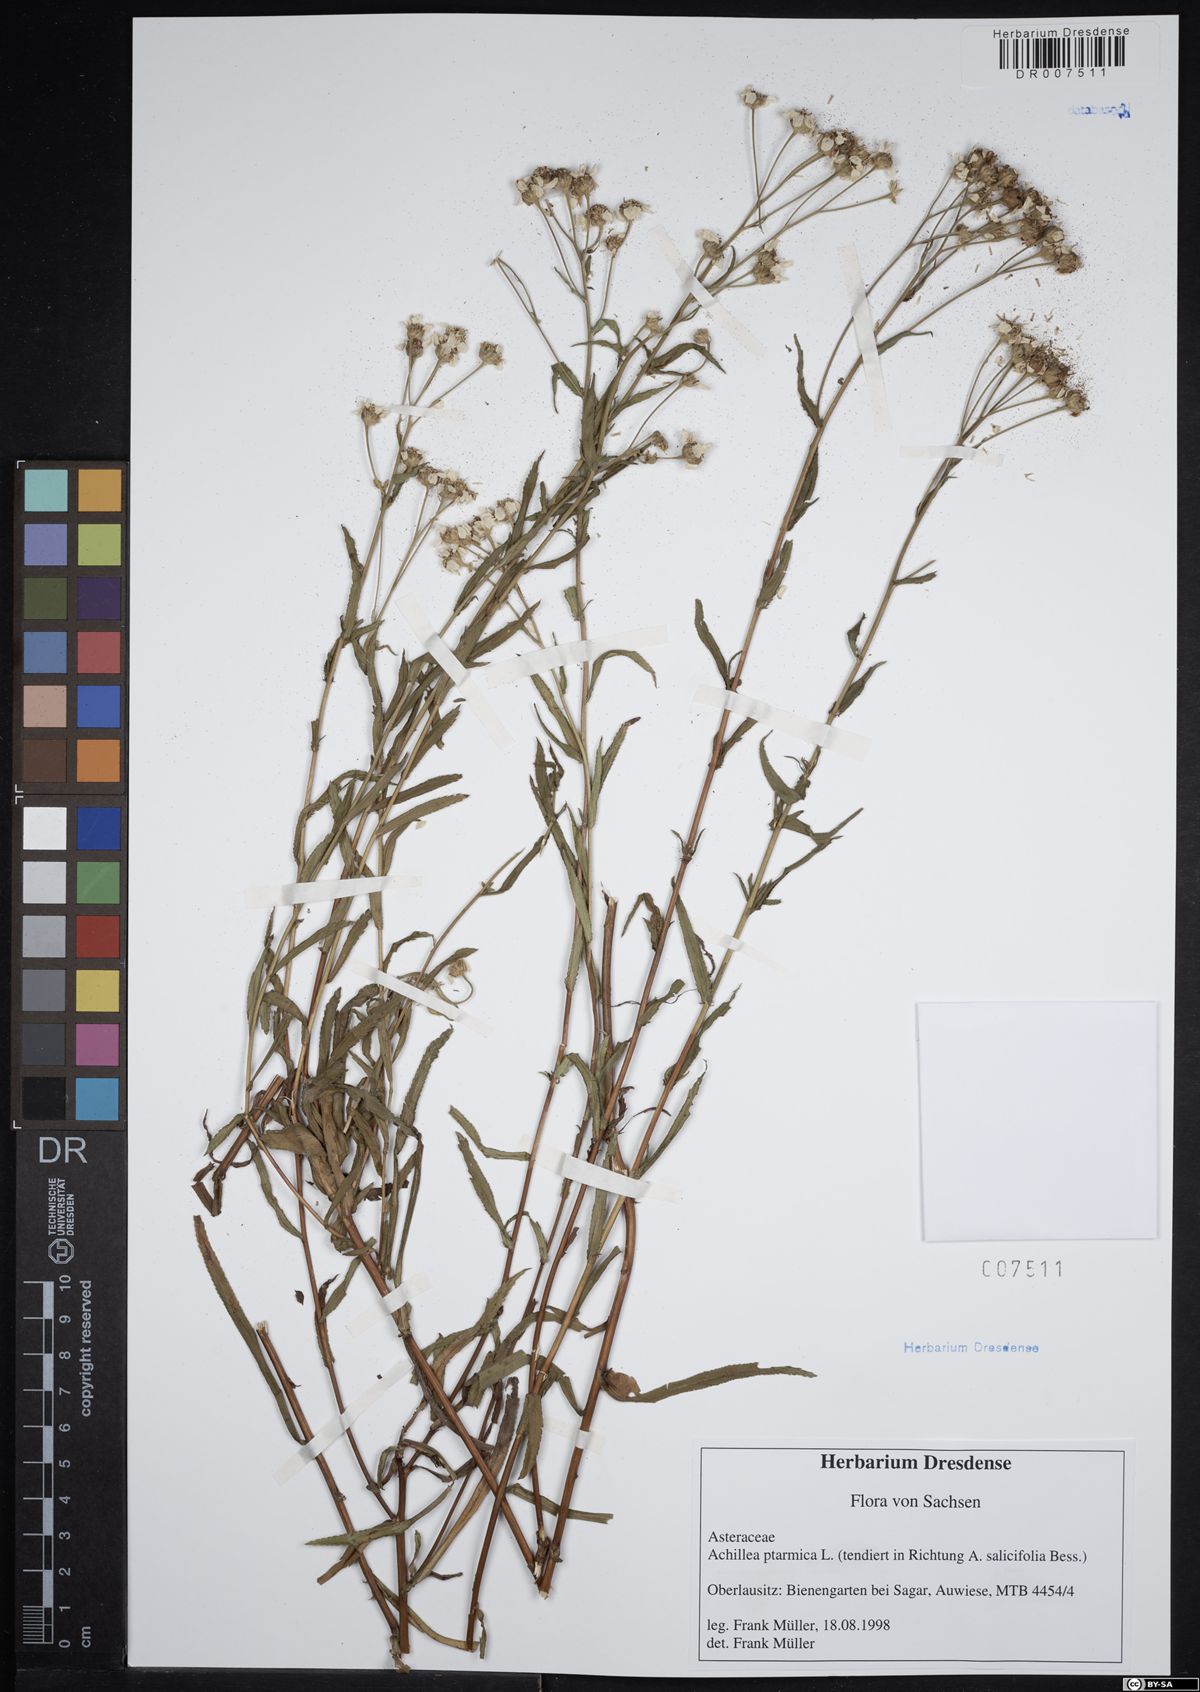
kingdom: Plantae
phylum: Tracheophyta
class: Magnoliopsida
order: Asterales
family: Asteraceae
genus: Achillea
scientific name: Achillea ptarmica
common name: Sneezeweed
